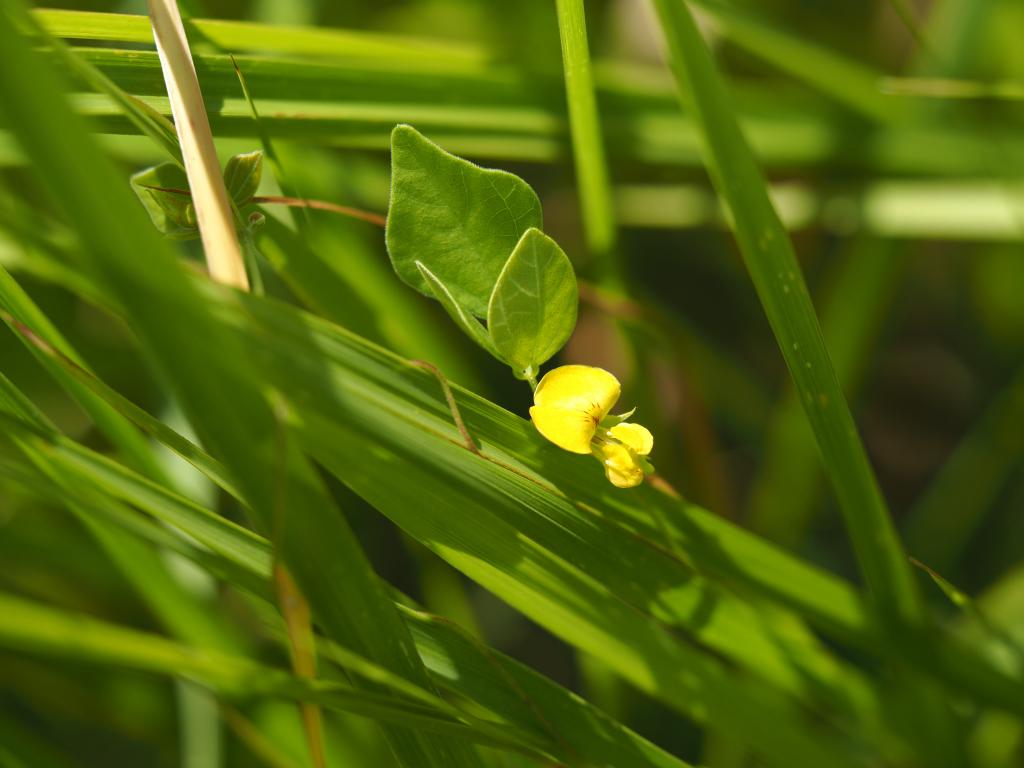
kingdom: Plantae
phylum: Tracheophyta
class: Magnoliopsida
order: Fabales
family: Fabaceae
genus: Dunbaria
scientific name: Dunbaria punctata
